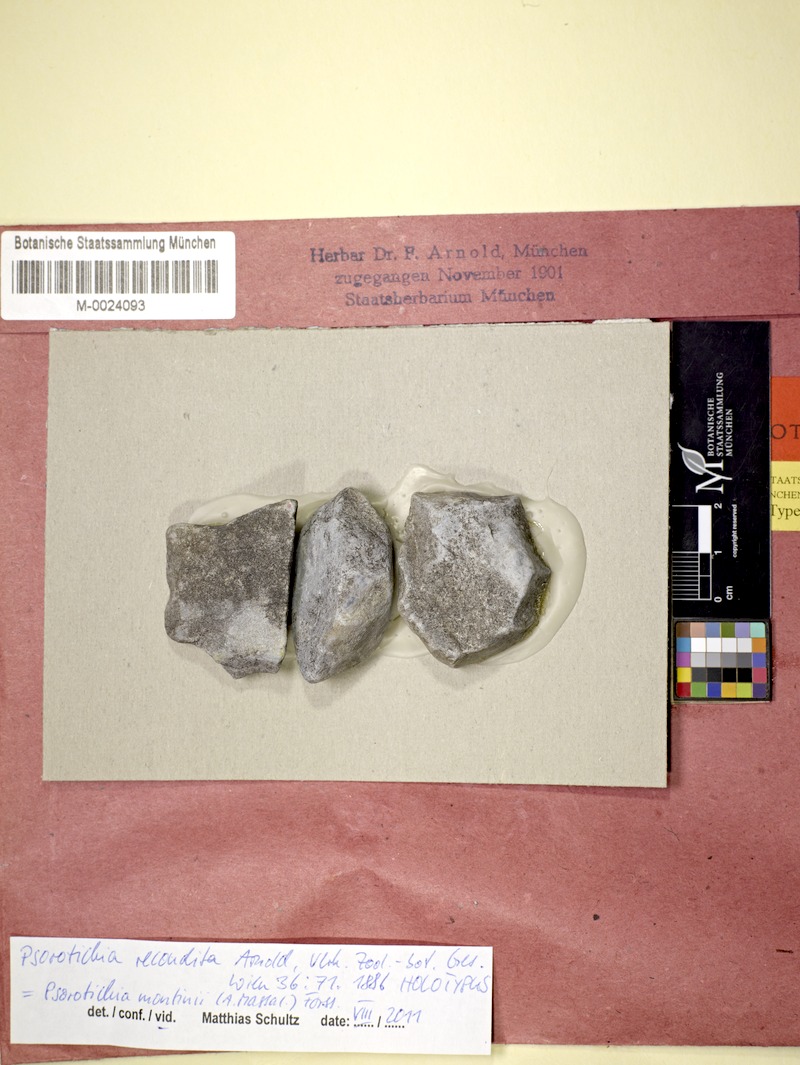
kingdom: Fungi
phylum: Ascomycota
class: Lichinomycetes
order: Lichinales
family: Lichinaceae
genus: Pyrenocarpon
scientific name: Pyrenocarpon Thelochroa montinii
